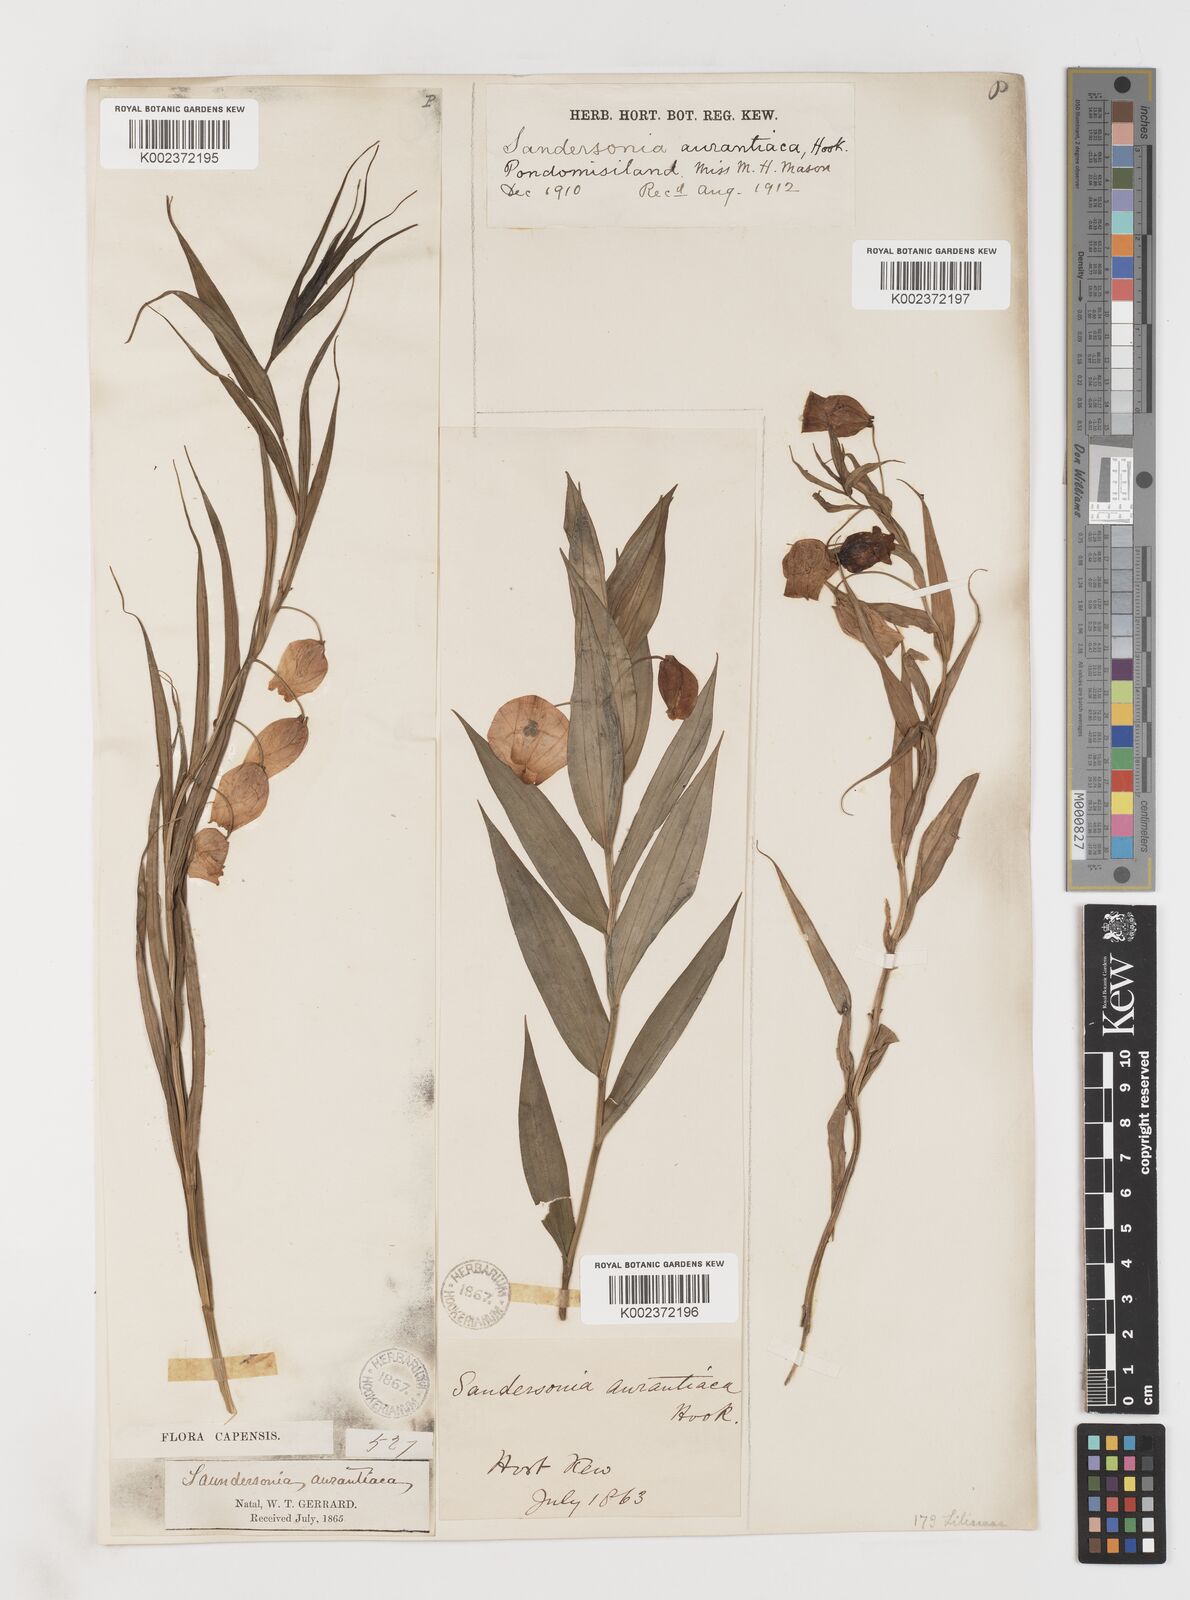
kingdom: Plantae
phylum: Tracheophyta
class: Liliopsida
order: Liliales
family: Colchicaceae
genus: Sandersonia
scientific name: Sandersonia aurantiaca
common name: Chinese-lantern-lily
